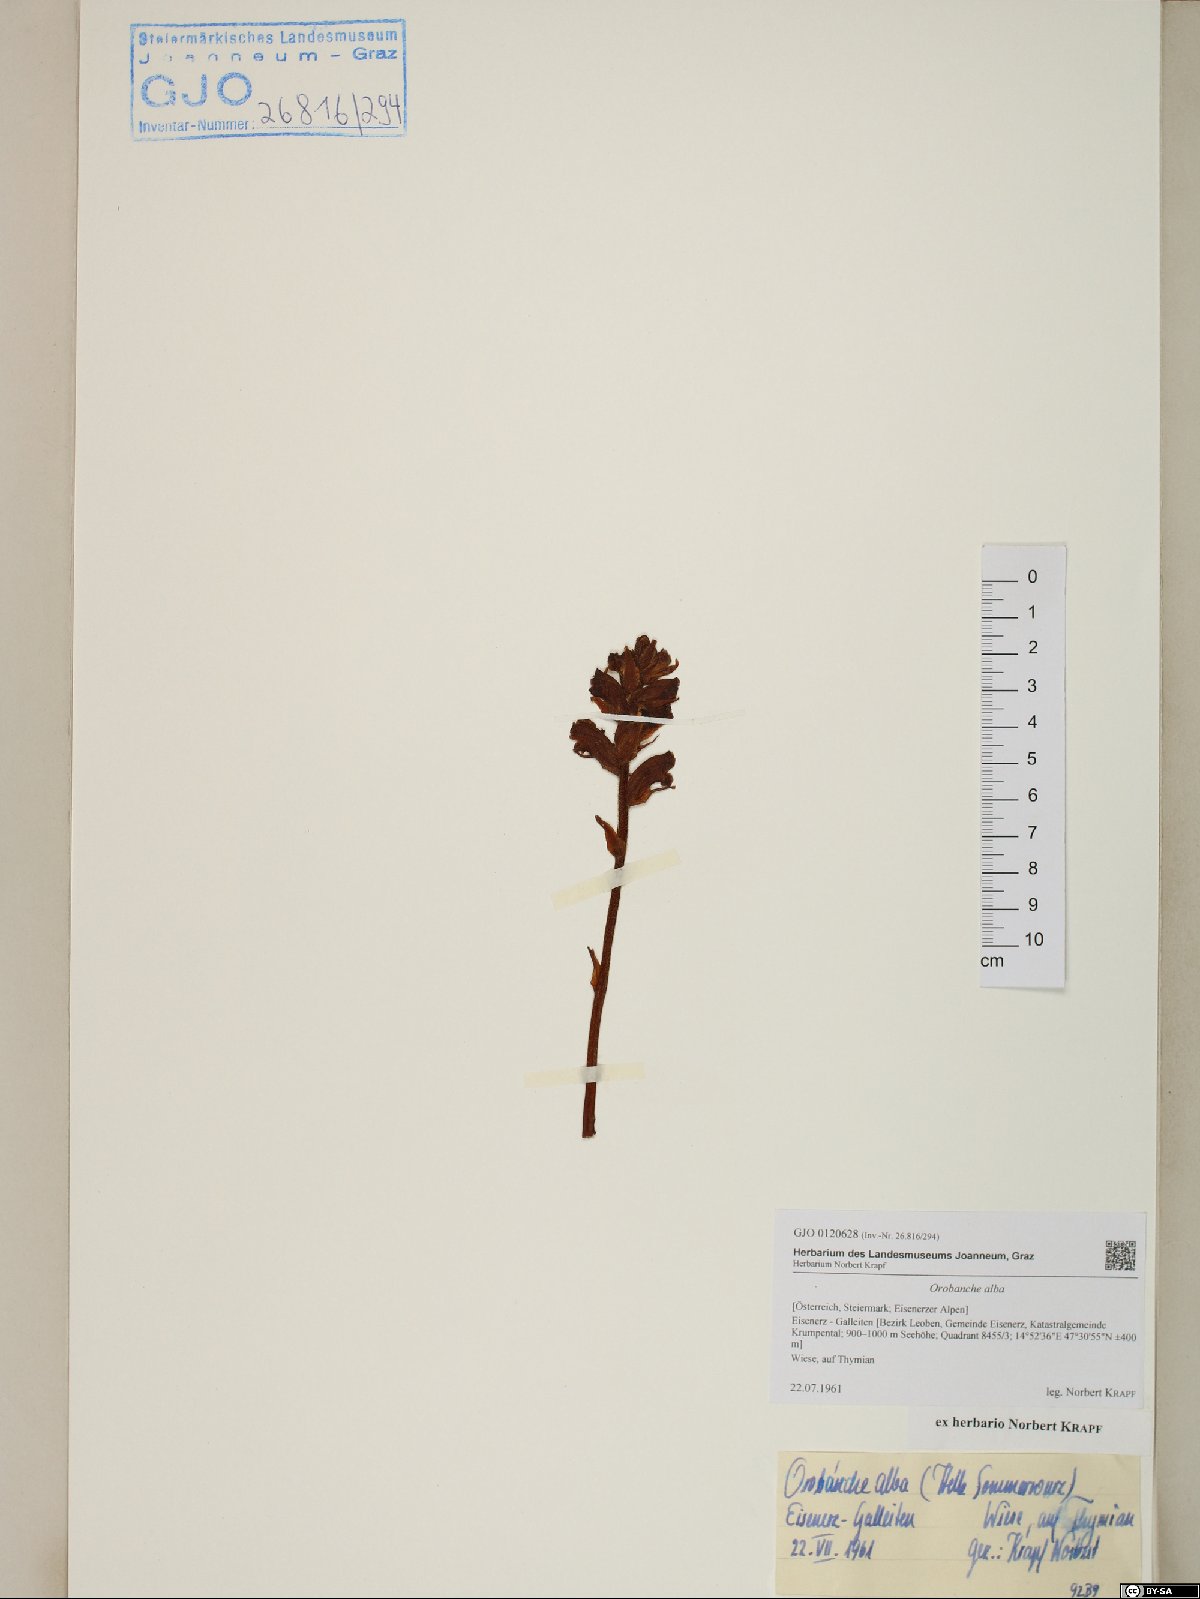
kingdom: Plantae
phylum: Tracheophyta
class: Magnoliopsida
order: Lamiales
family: Orobanchaceae
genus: Orobanche
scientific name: Orobanche alba
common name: Thyme broomrape
